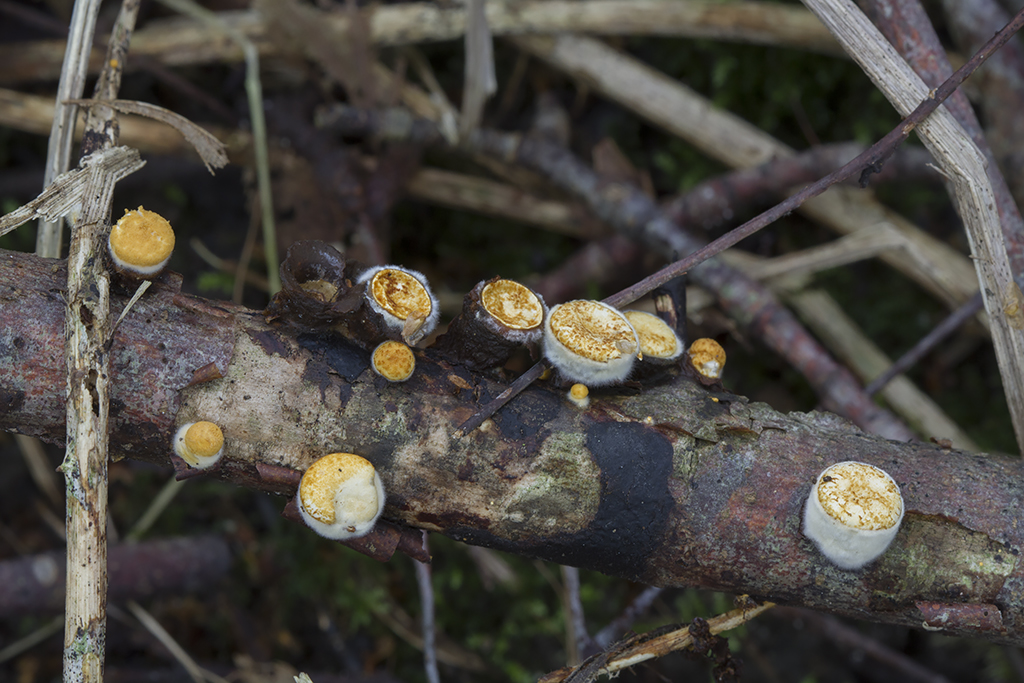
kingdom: Fungi
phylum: Basidiomycota
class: Agaricomycetes
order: Agaricales
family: Nidulariaceae
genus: Crucibulum
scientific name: Crucibulum crucibuliforme
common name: krukkesvamp
